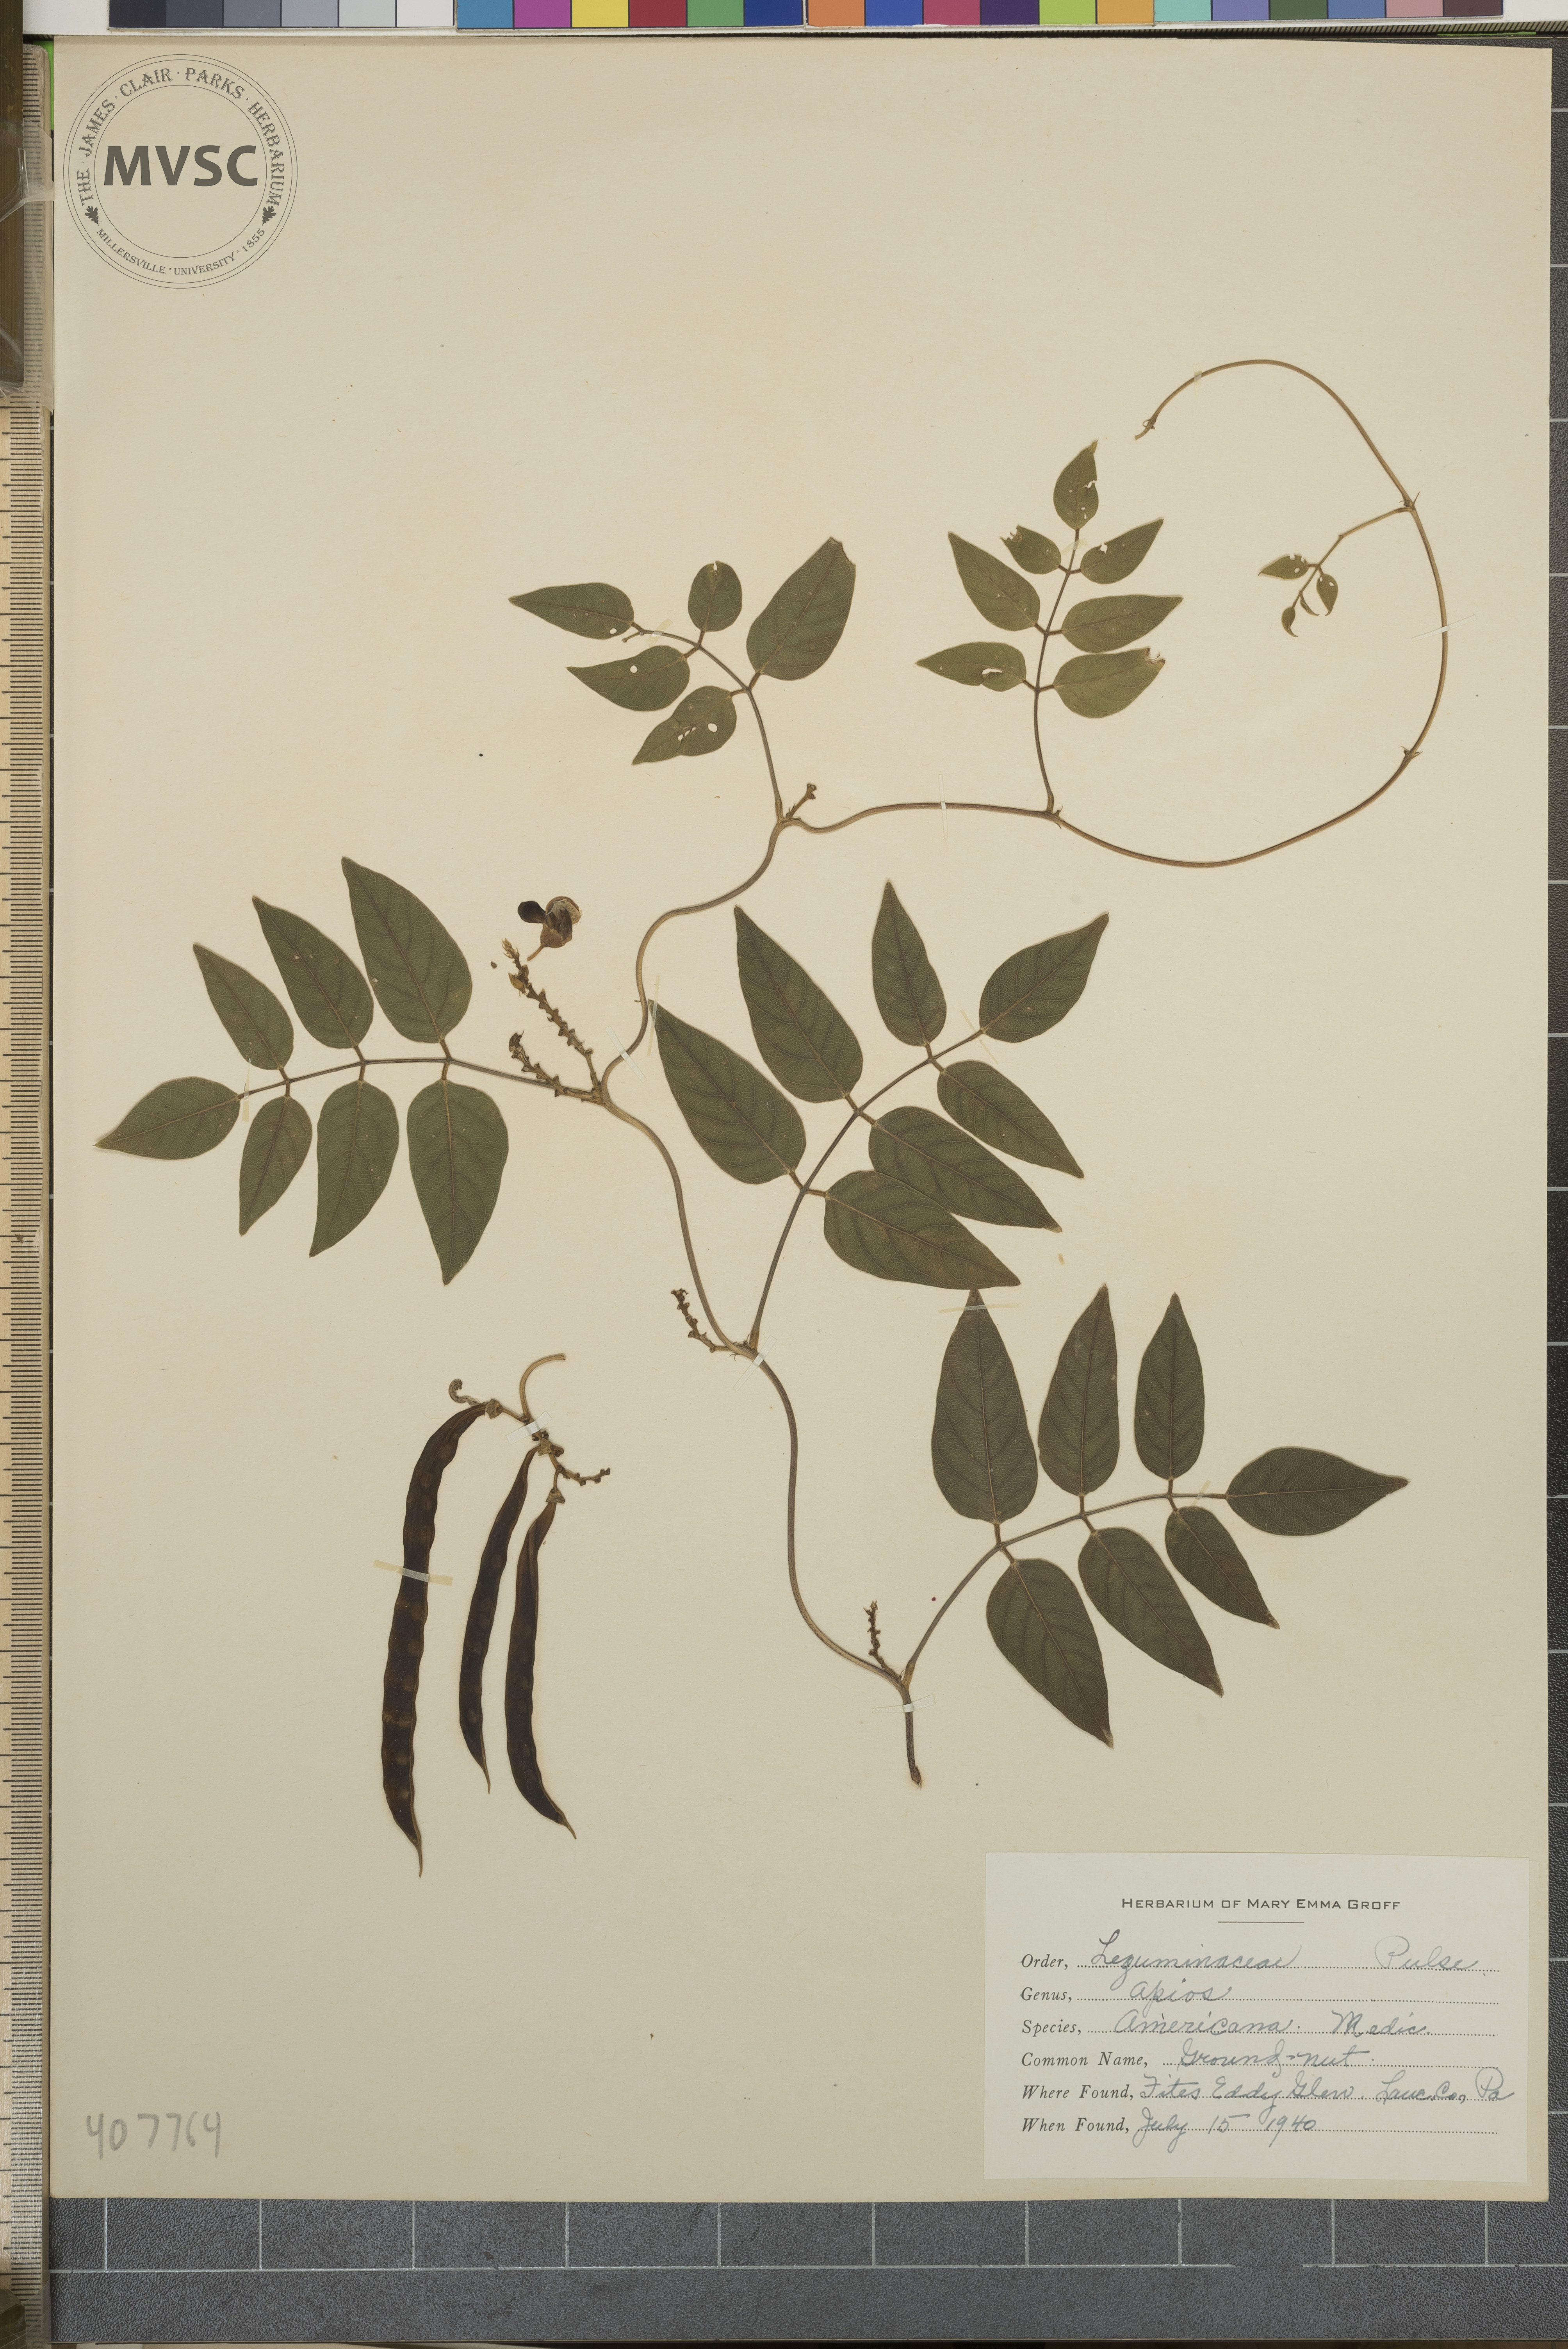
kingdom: Plantae
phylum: Tracheophyta
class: Magnoliopsida
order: Fabales
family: Fabaceae
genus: Apios
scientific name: Apios americana
